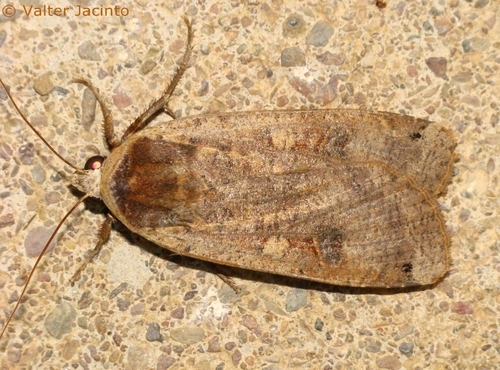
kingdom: Animalia
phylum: Arthropoda
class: Insecta
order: Lepidoptera
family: Noctuidae
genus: Noctua
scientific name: Noctua pronuba
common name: Large yellow underwing
